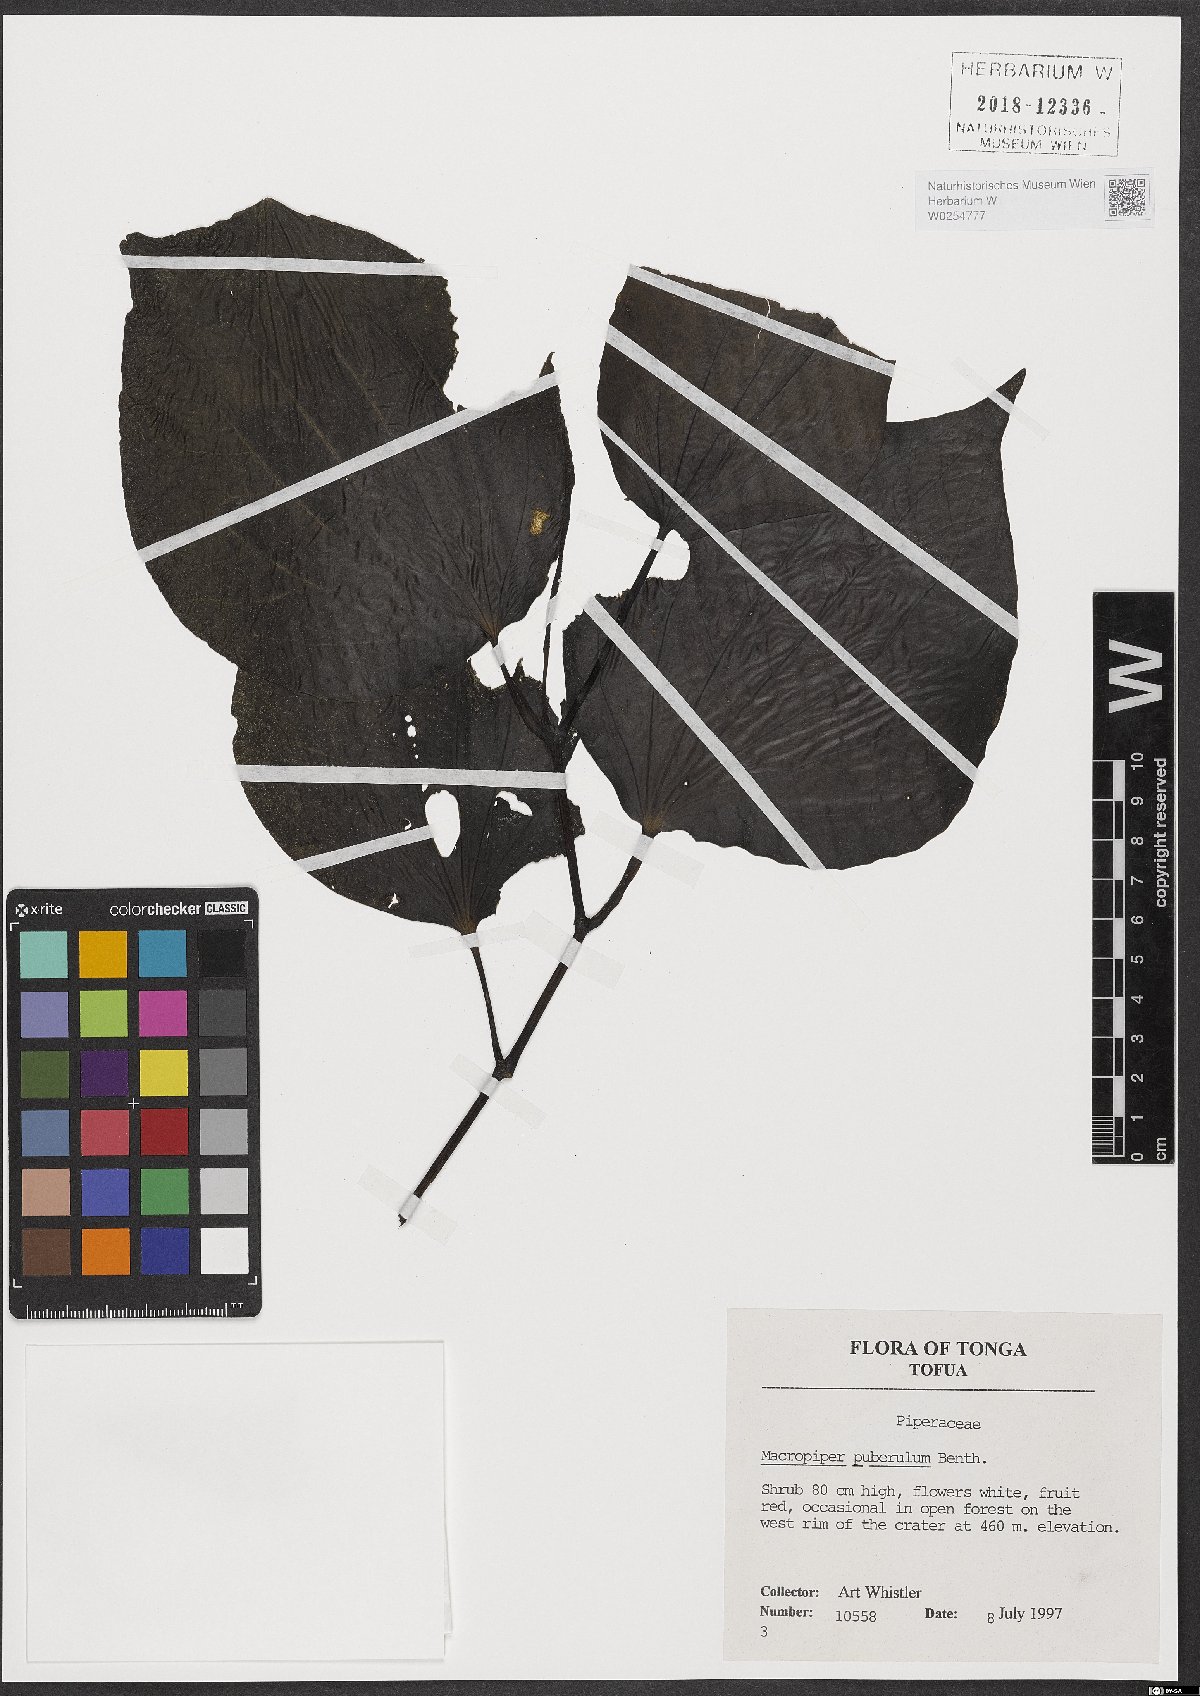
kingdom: Plantae
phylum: Tracheophyta
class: Magnoliopsida
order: Piperales
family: Piperaceae
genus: Macropiper
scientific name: Macropiper puberulum
